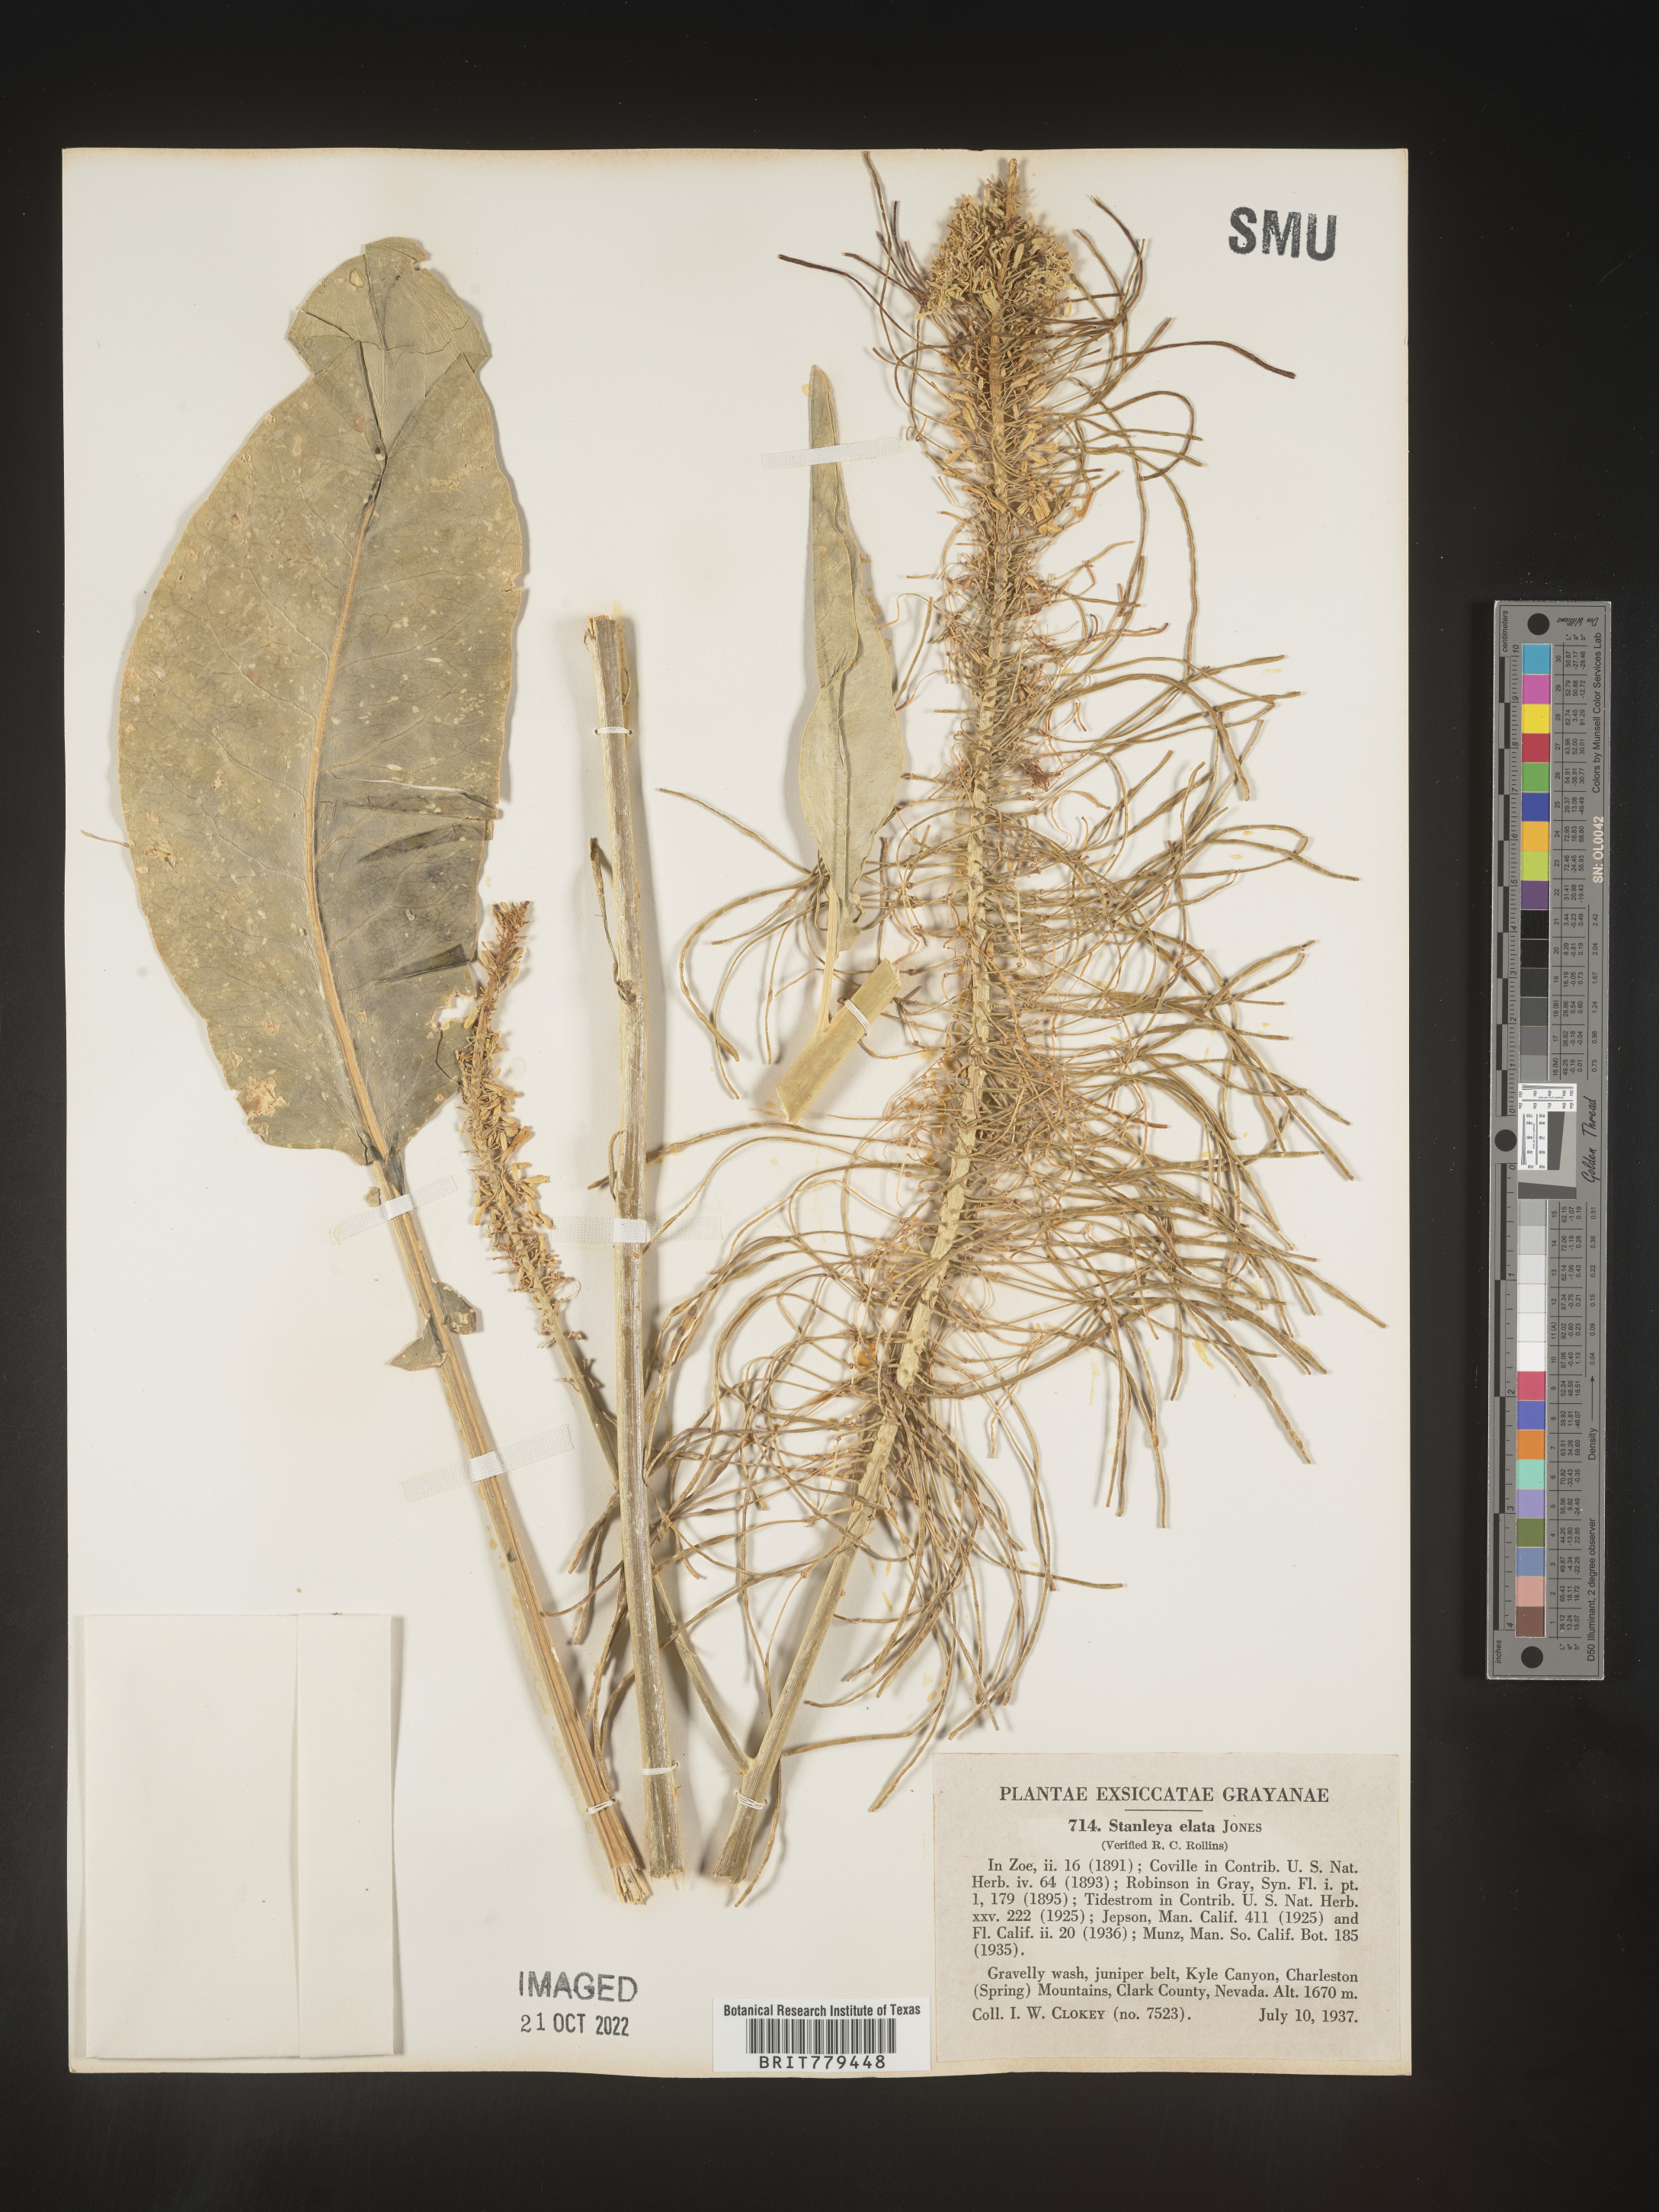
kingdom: Plantae
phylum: Tracheophyta
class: Magnoliopsida
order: Brassicales
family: Brassicaceae
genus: Stanleya
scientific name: Stanleya
